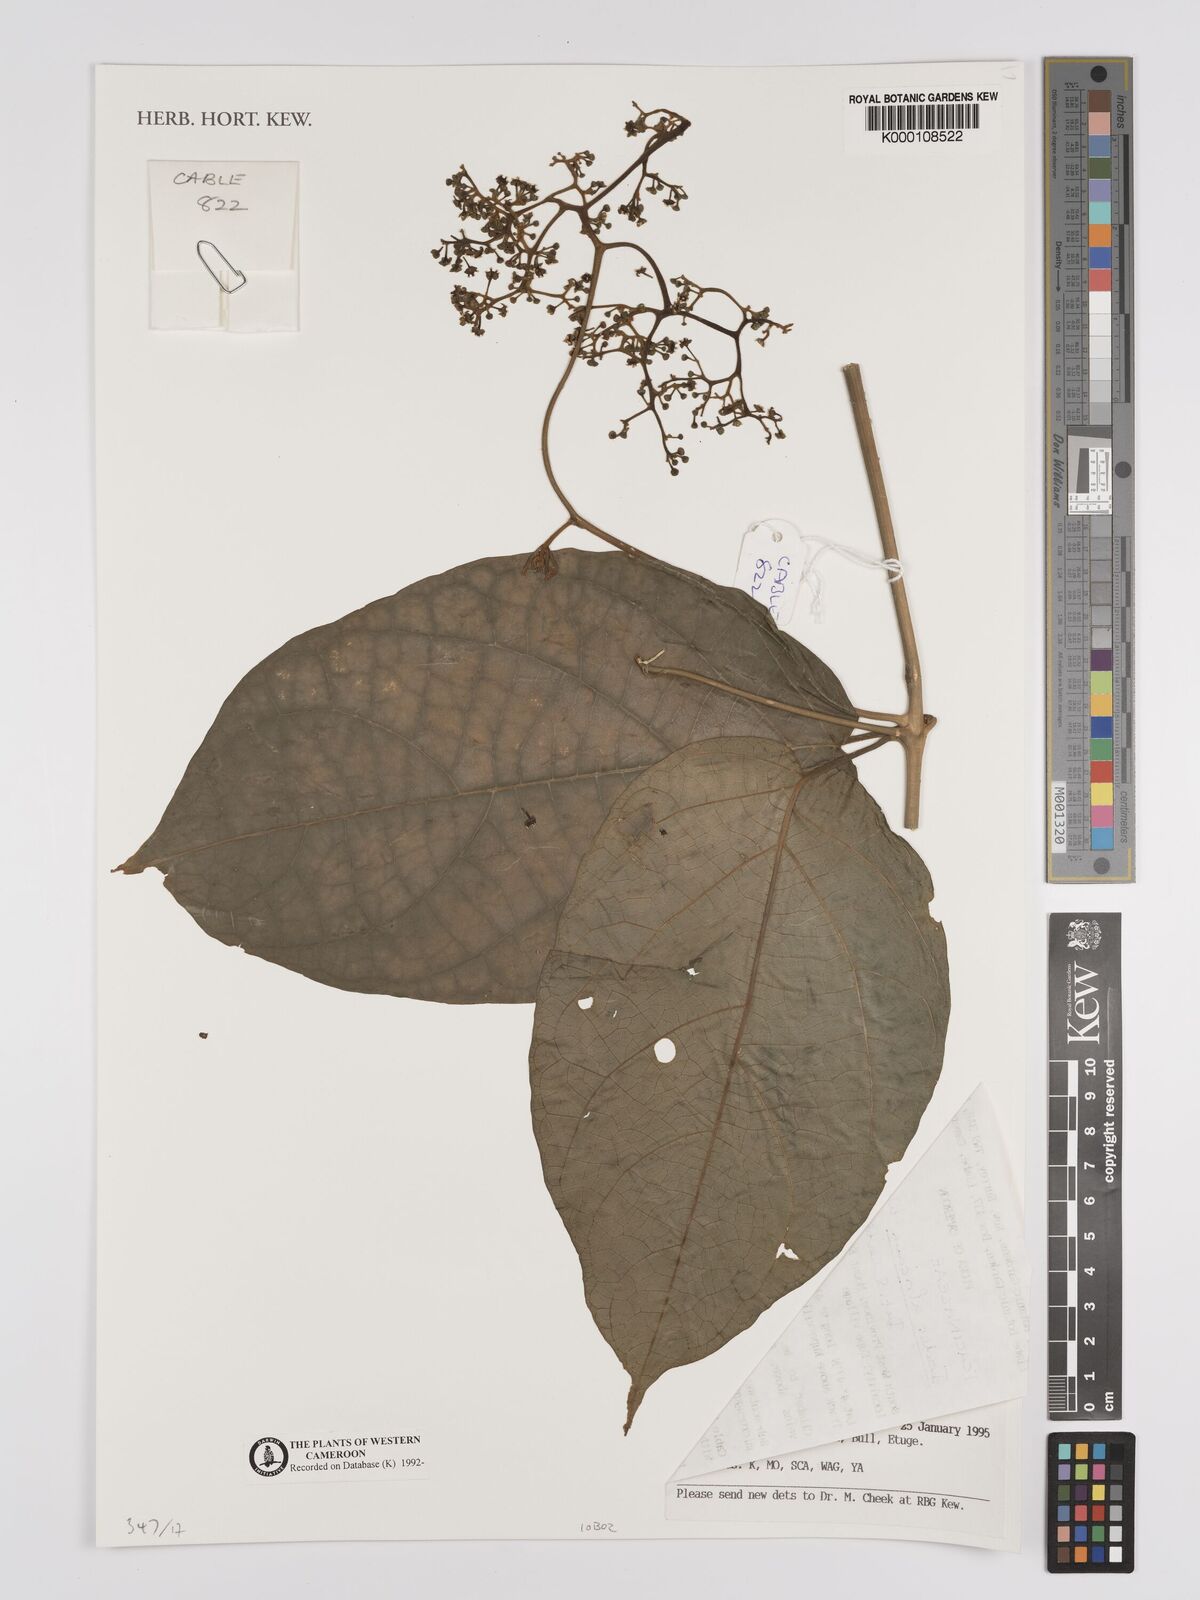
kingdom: Plantae
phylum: Tracheophyta
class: Magnoliopsida
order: Icacinales
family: Icacinaceae
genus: Iodes
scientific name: Iodes africana
